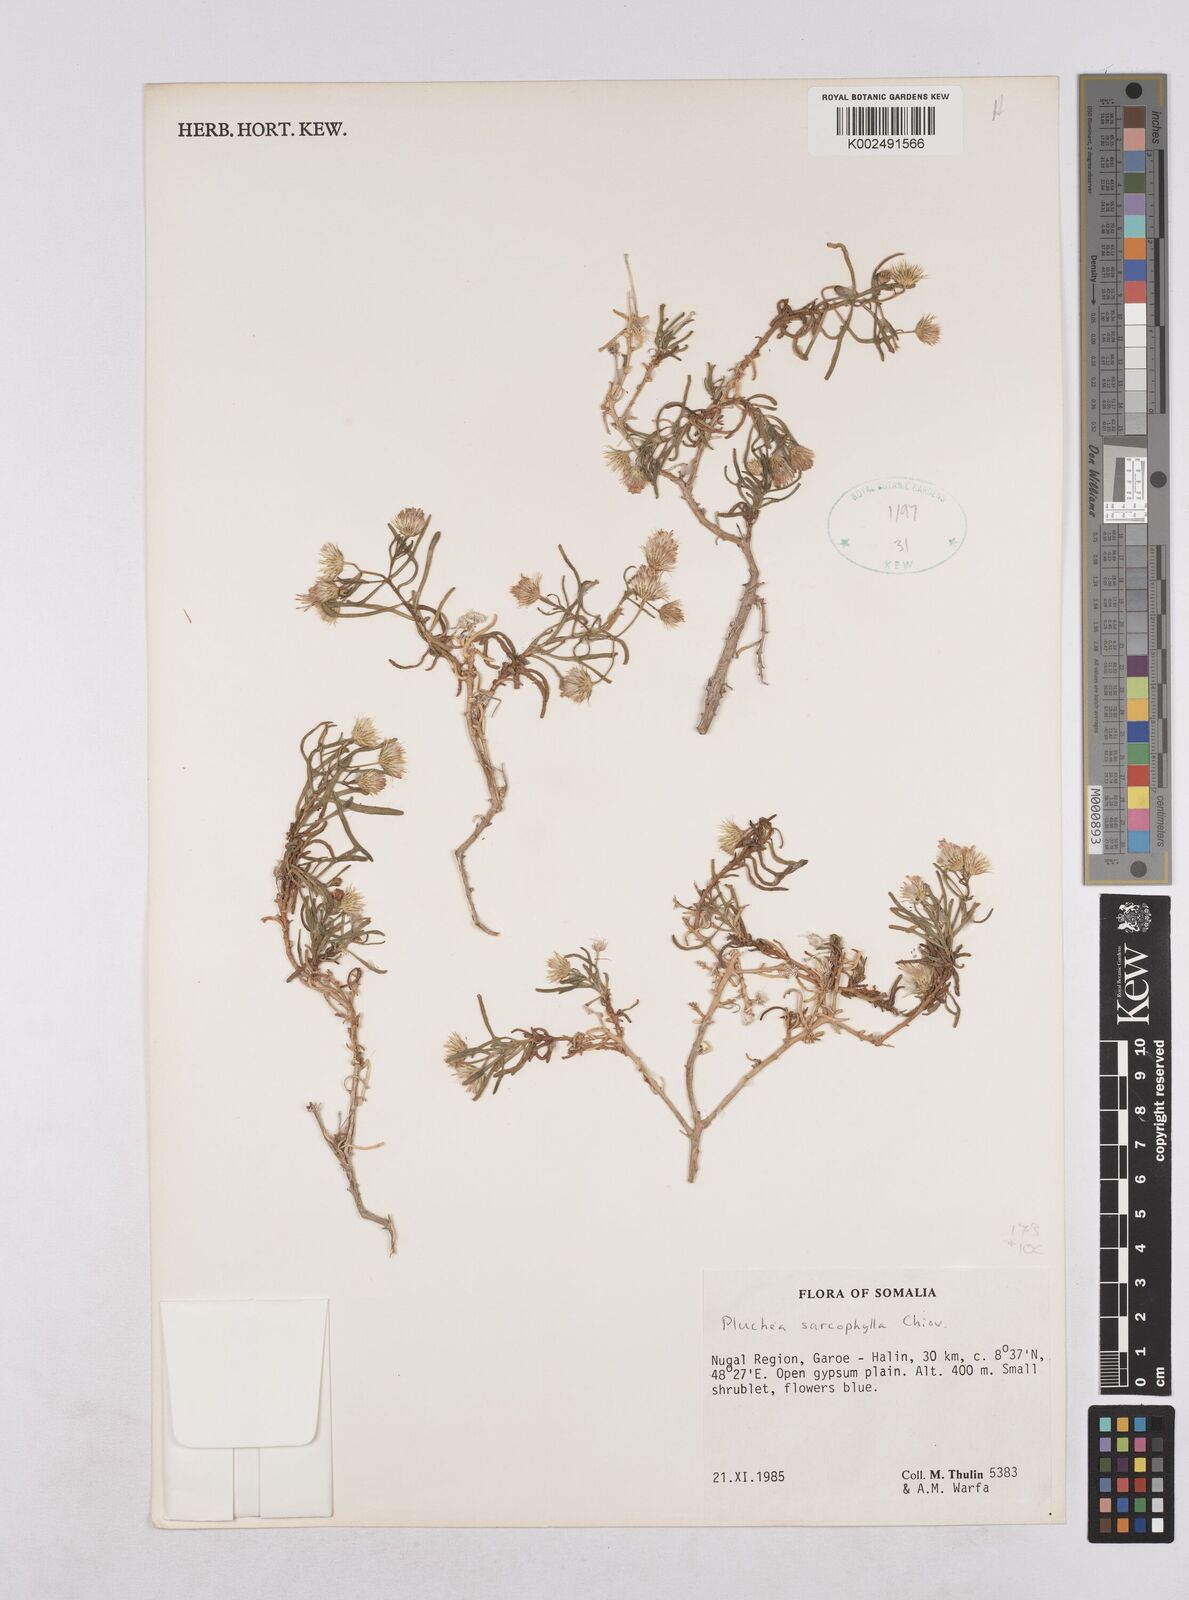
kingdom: Plantae
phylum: Tracheophyta
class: Magnoliopsida
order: Asterales
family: Asteraceae
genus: Pluchea
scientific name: Pluchea sarcophylla
